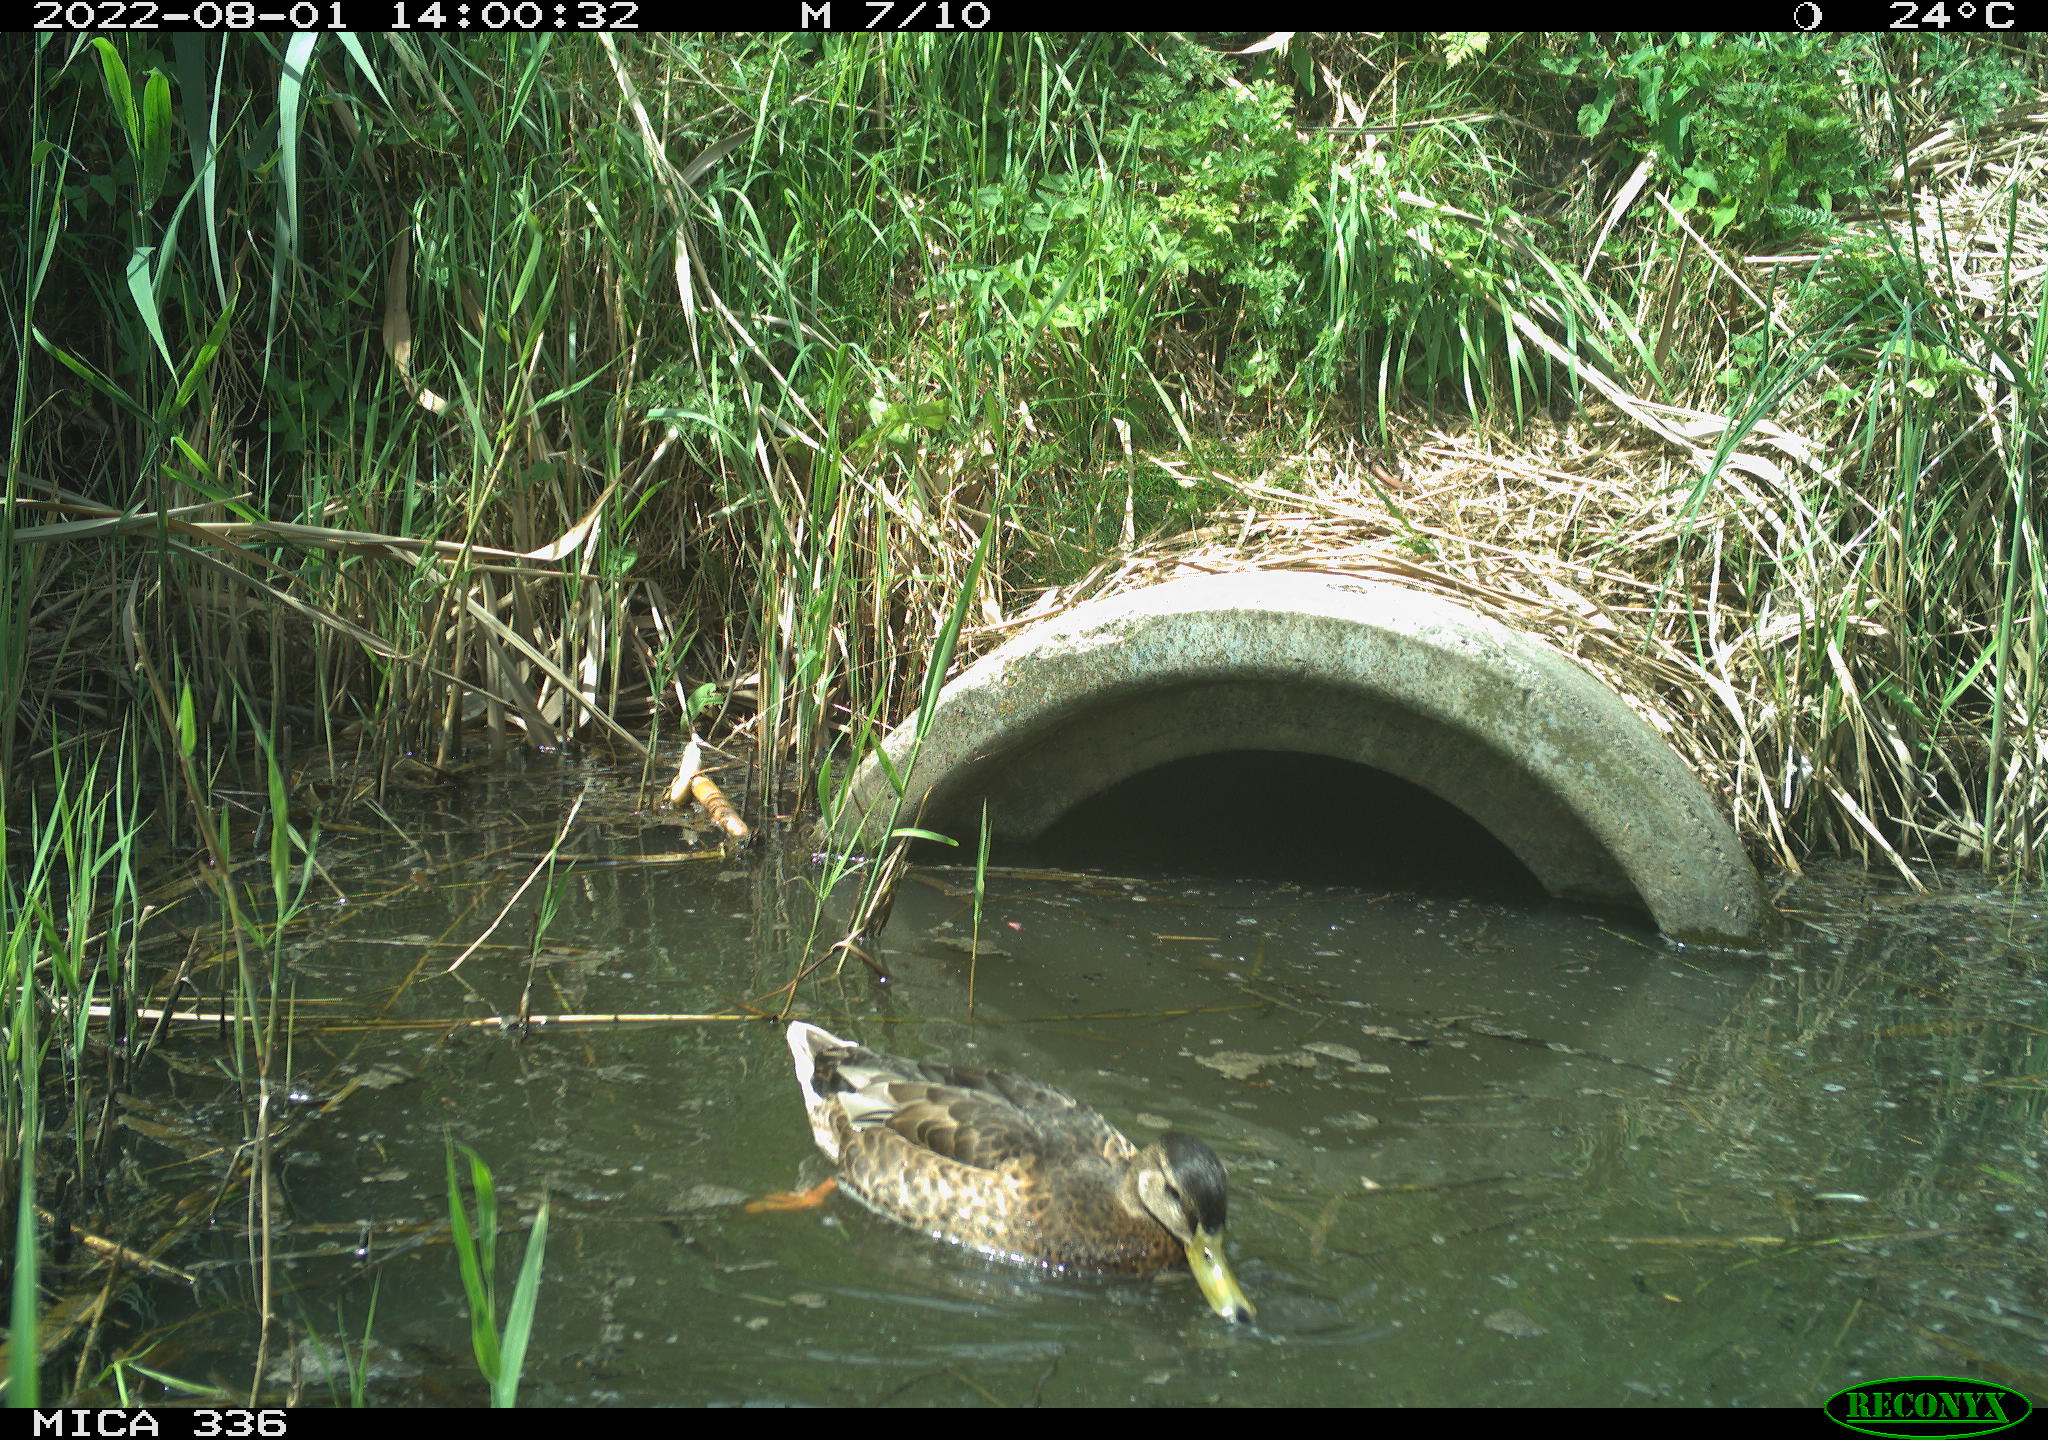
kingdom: Animalia
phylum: Chordata
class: Aves
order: Anseriformes
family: Anatidae
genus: Mareca
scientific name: Mareca strepera
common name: Gadwall
